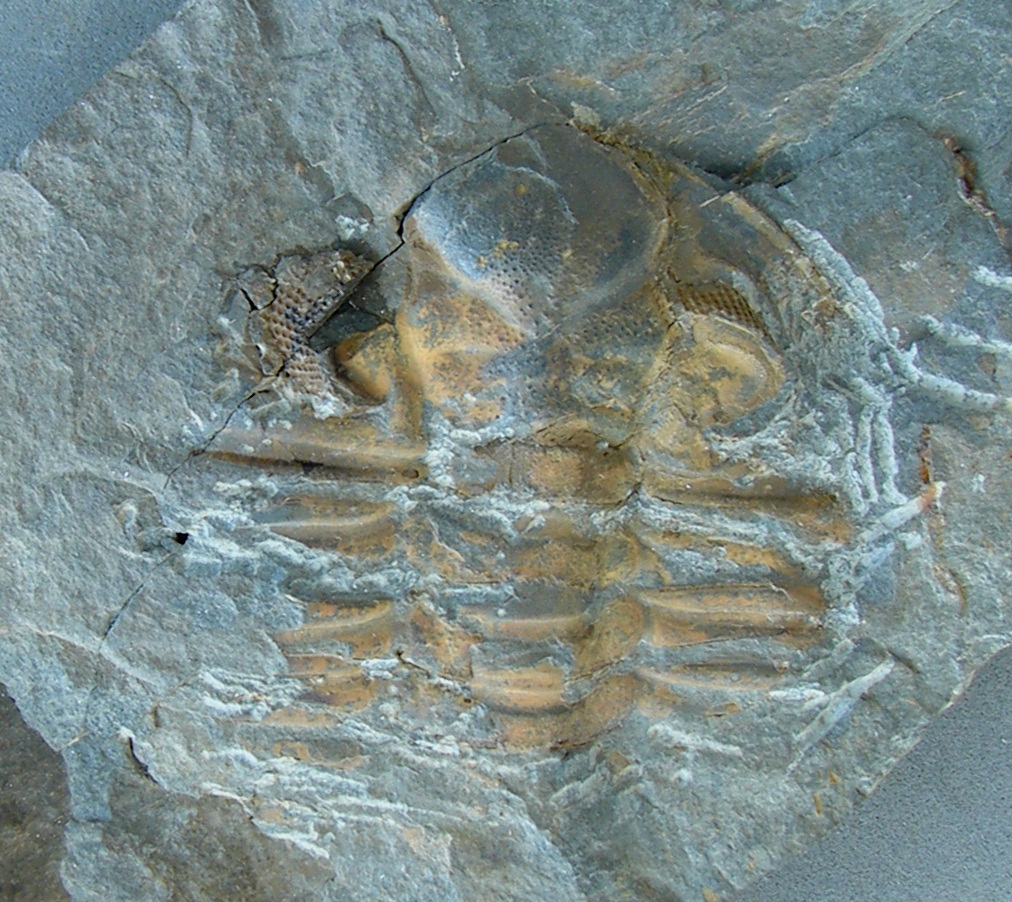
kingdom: Animalia
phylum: Arthropoda
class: Trilobita
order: Phacopida
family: Calmoniidae
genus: Treveropyge
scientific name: Treveropyge wiltziana
